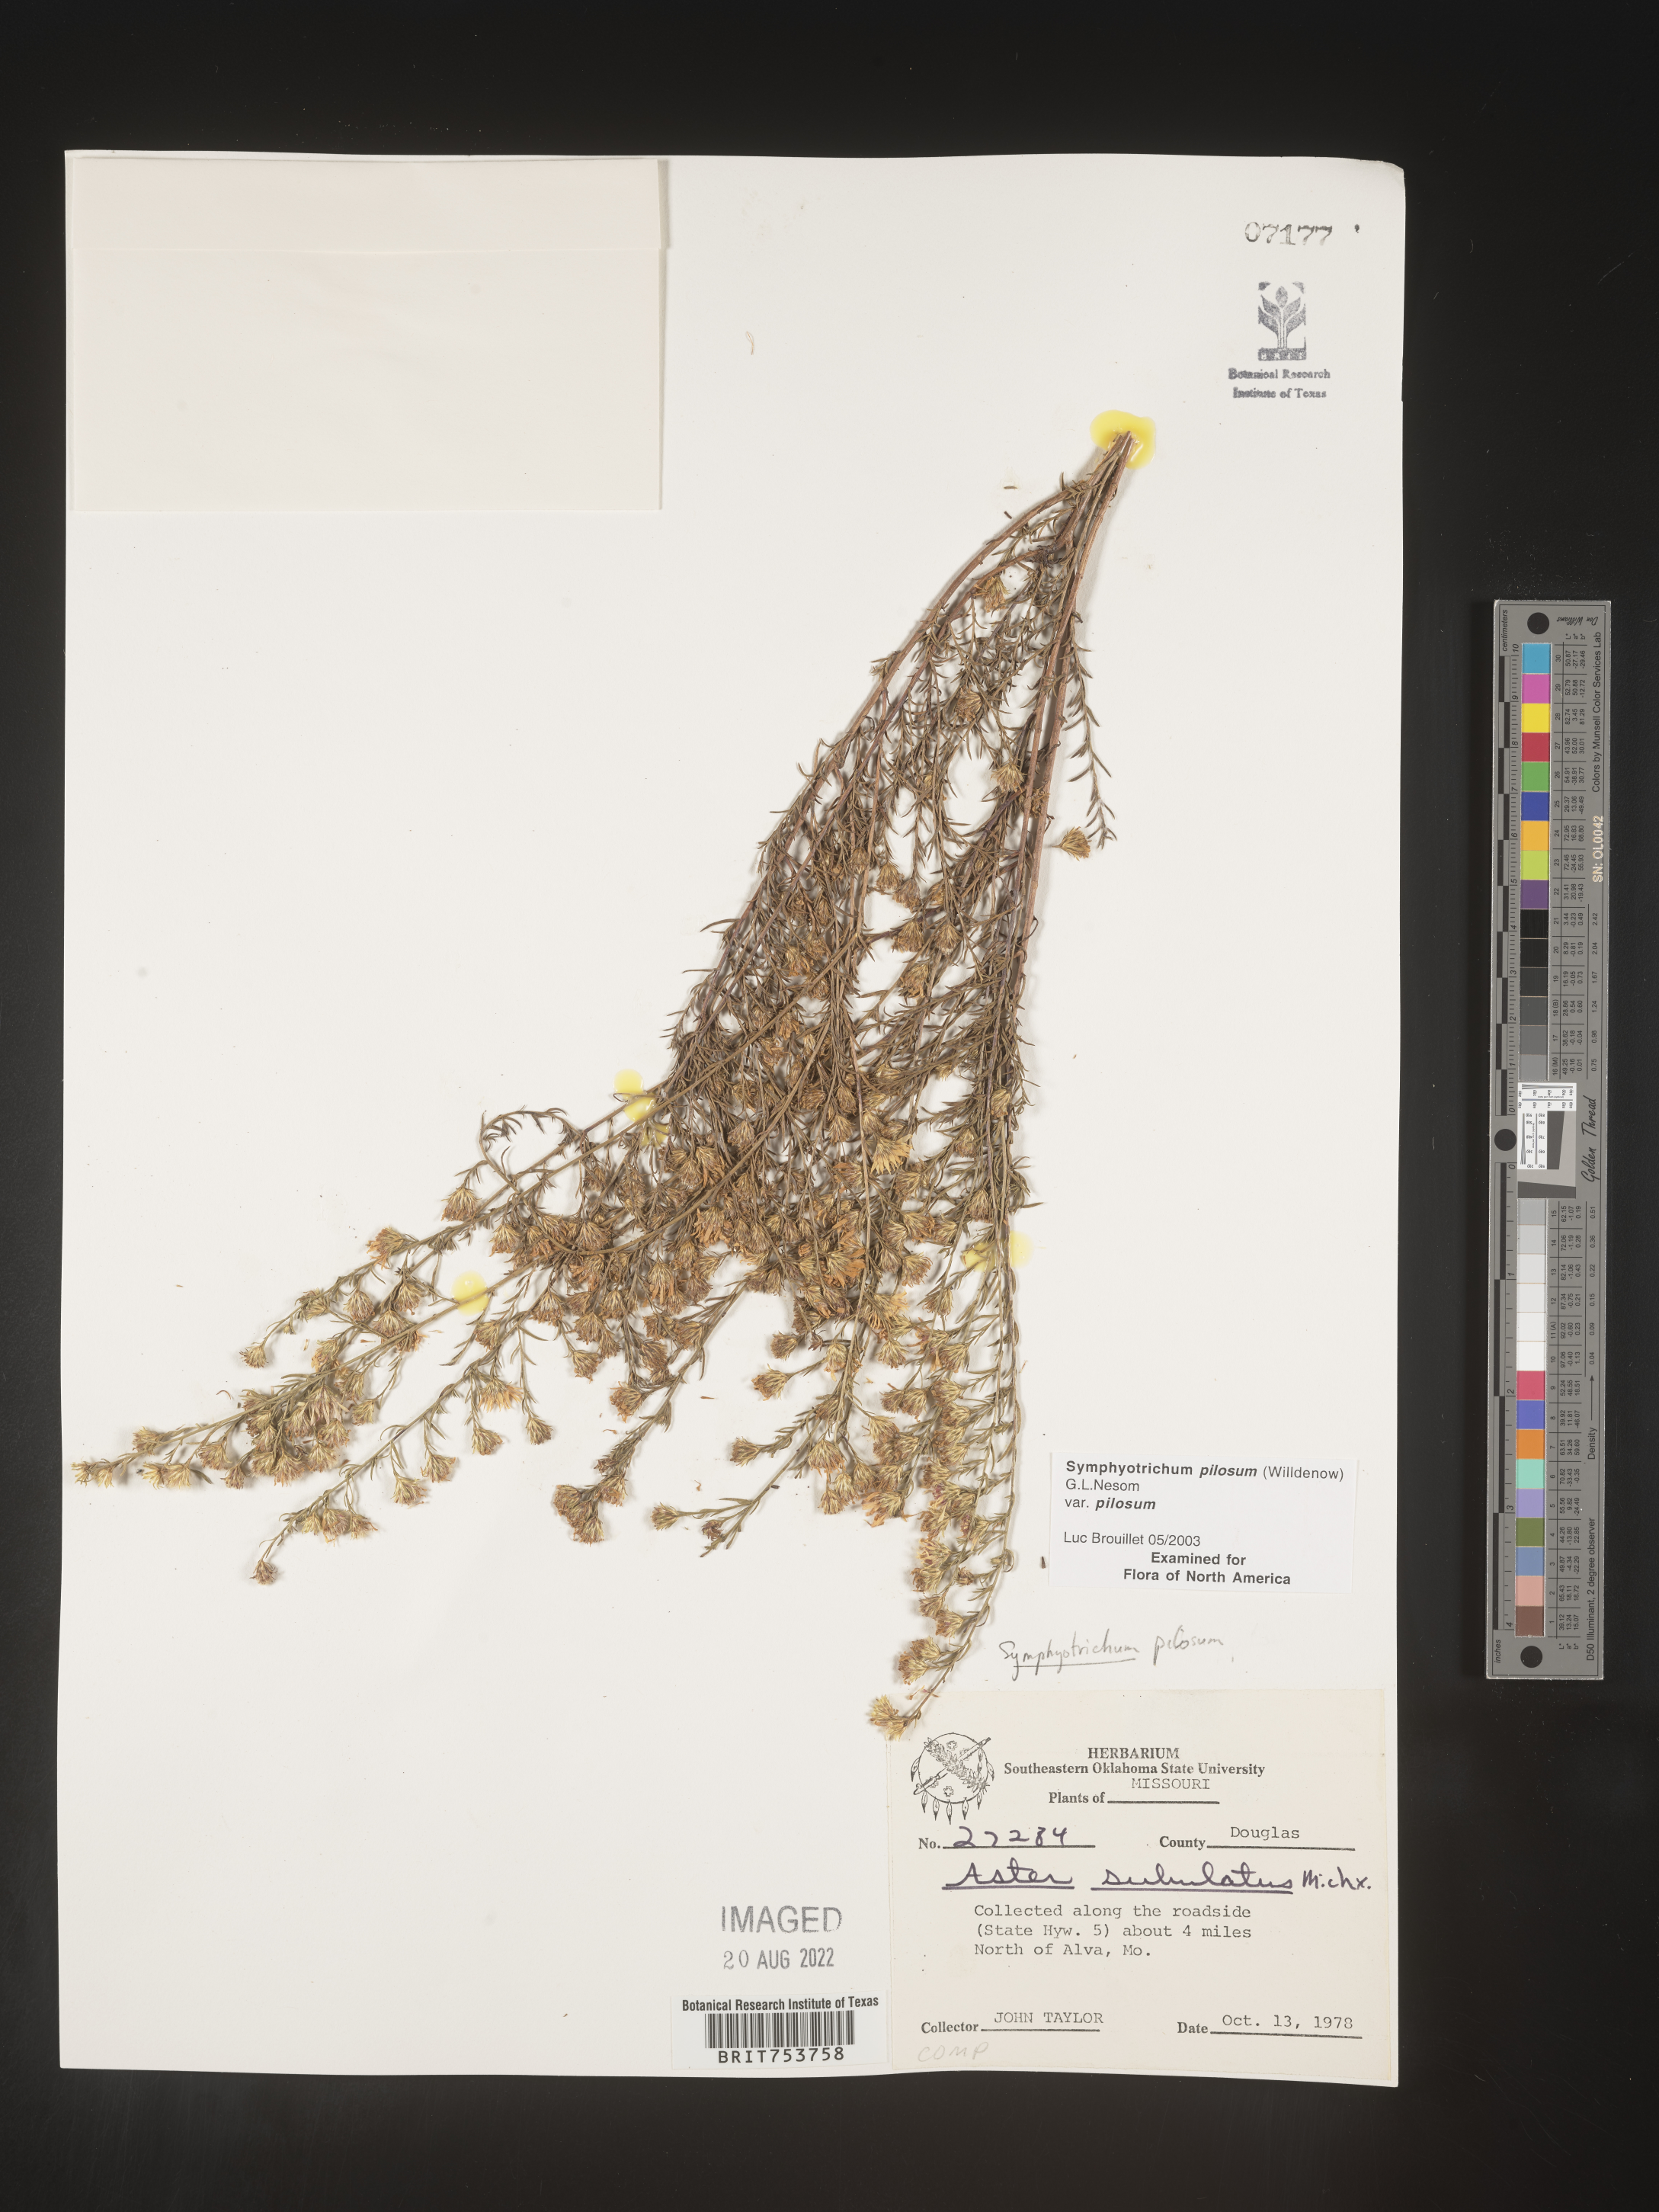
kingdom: Plantae
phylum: Tracheophyta
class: Magnoliopsida
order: Asterales
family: Asteraceae
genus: Symphyotrichum
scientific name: Symphyotrichum pilosum
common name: Awl aster
